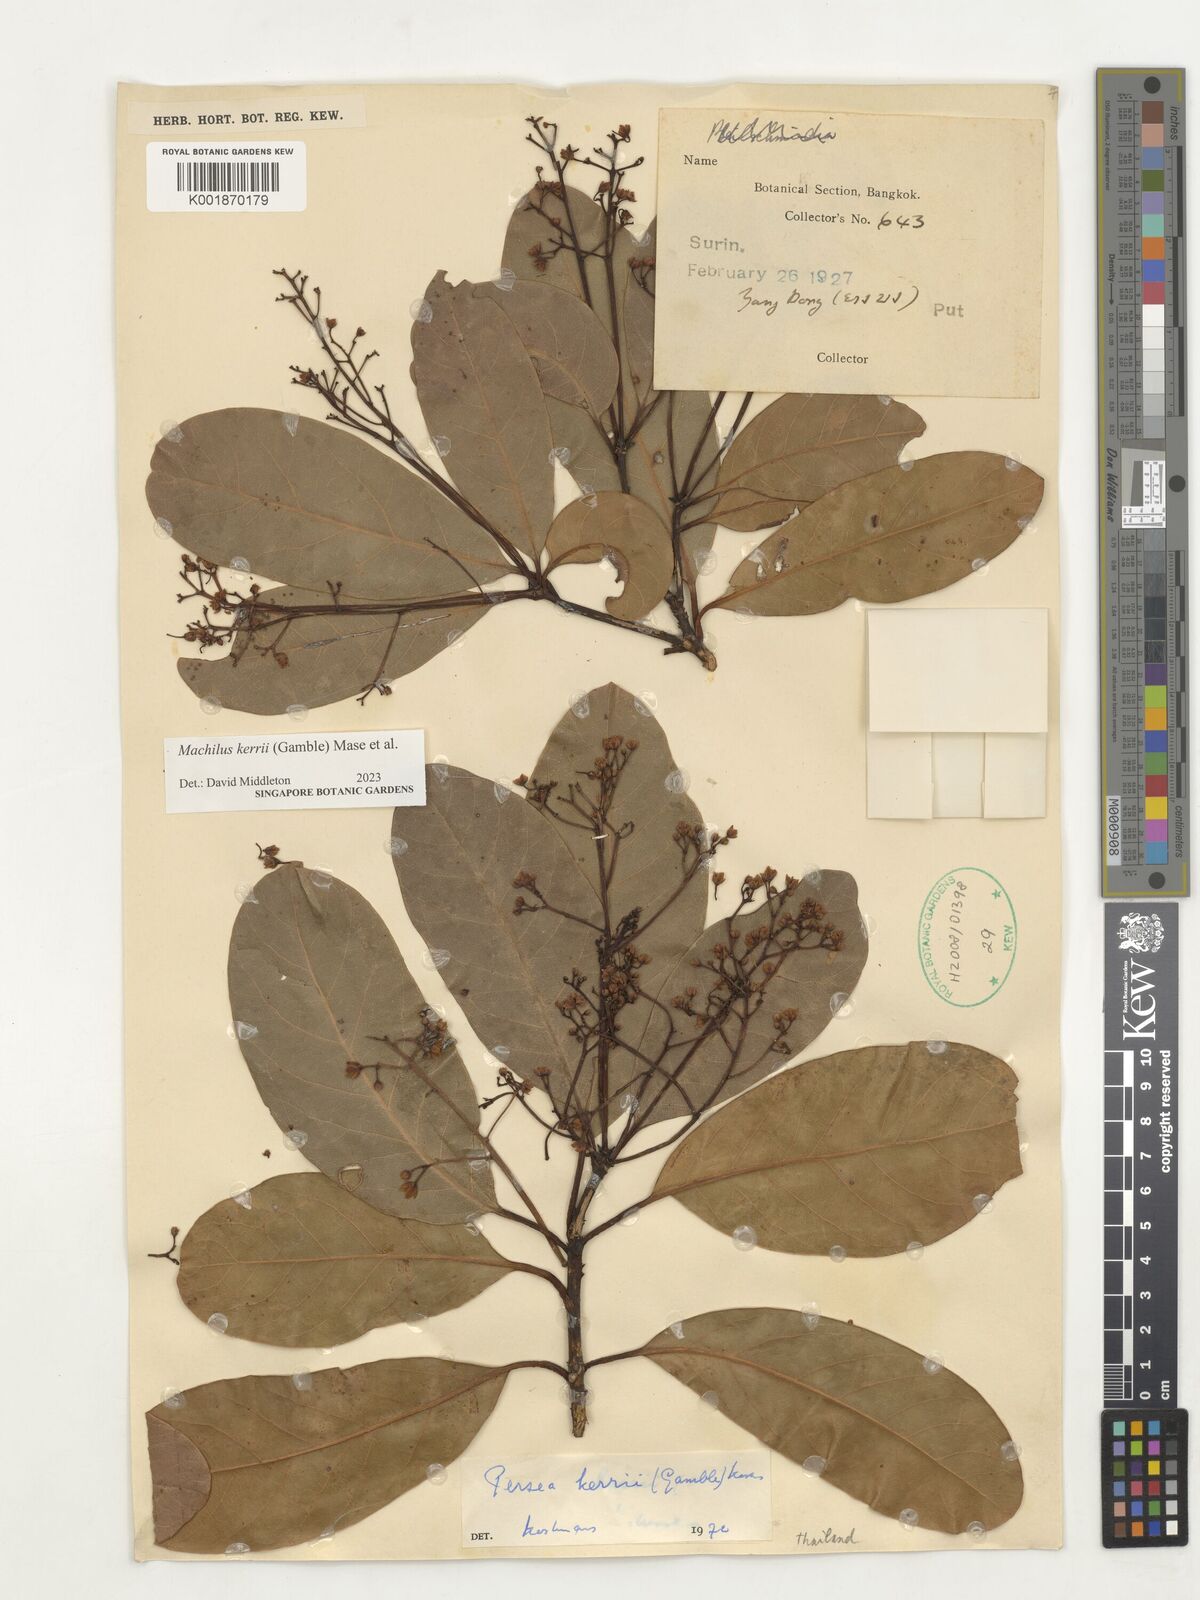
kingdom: Plantae
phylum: Tracheophyta
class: Magnoliopsida
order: Laurales
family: Lauraceae
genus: Machilus
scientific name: Machilus
